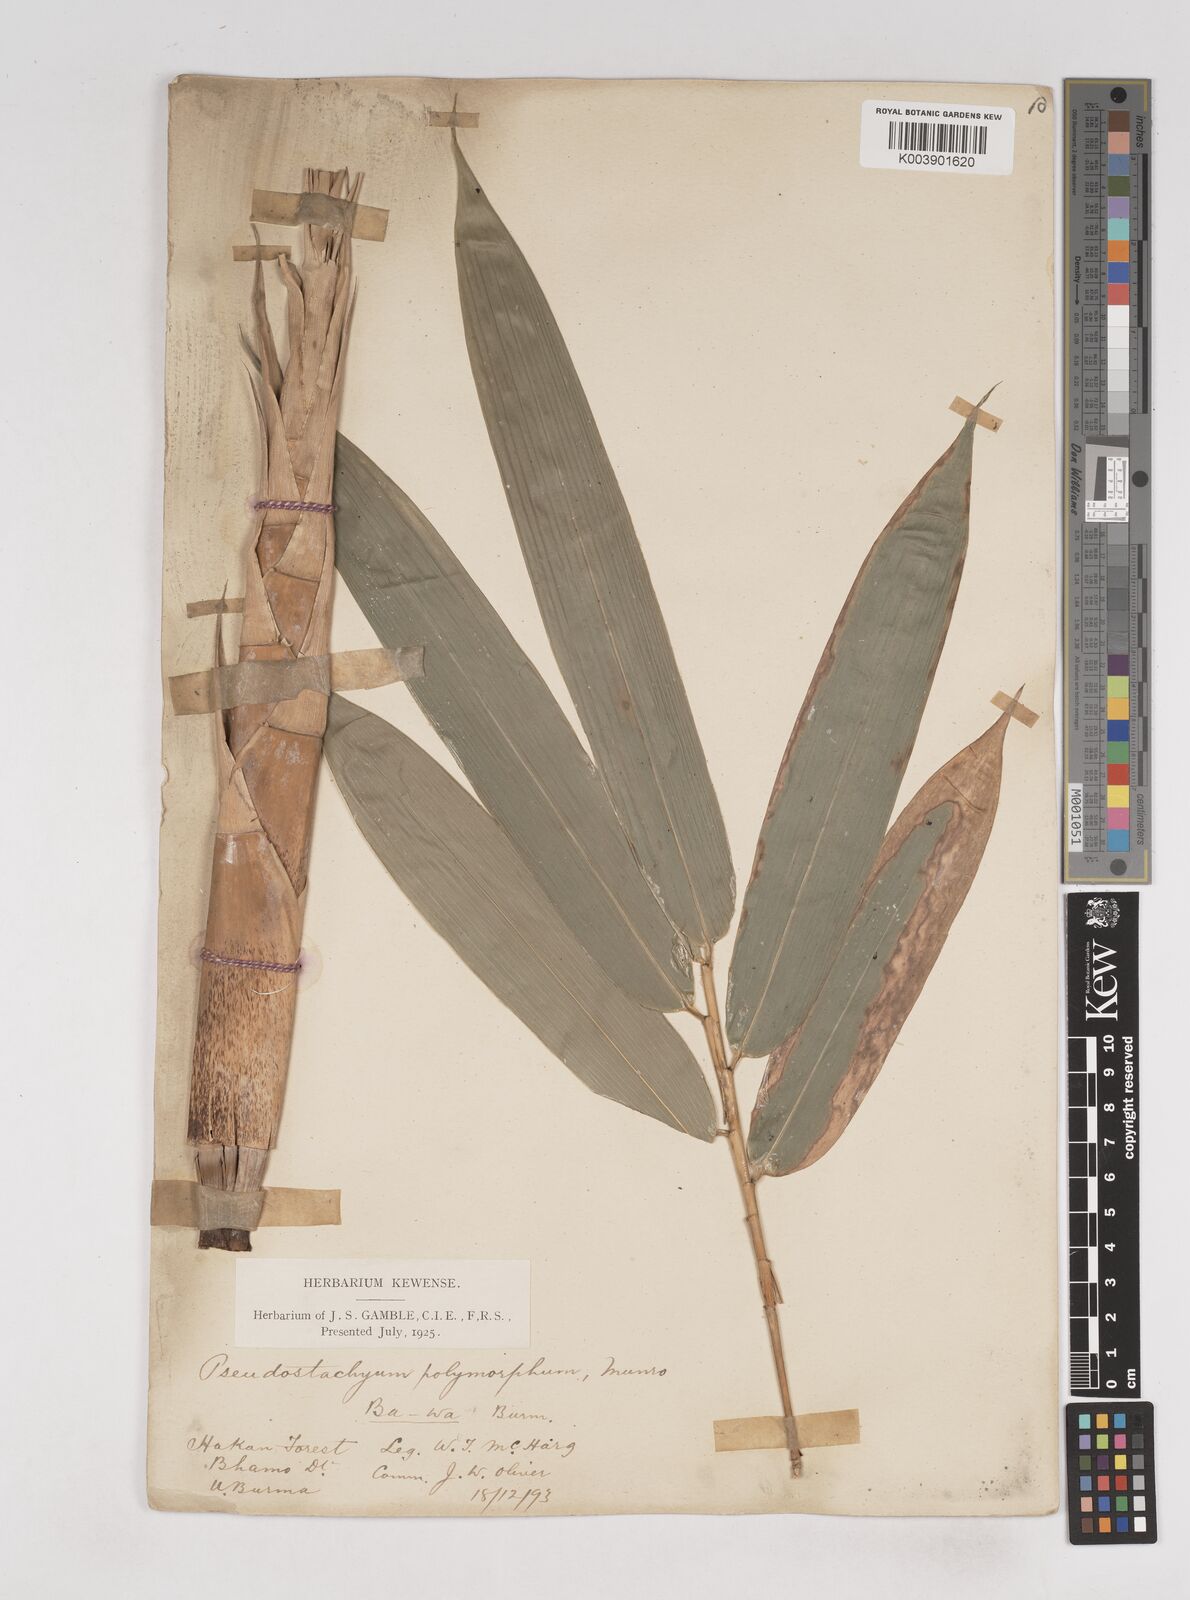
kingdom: Plantae
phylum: Tracheophyta
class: Liliopsida
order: Poales
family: Poaceae
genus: Pseudostachyum
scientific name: Pseudostachyum polymorphum
